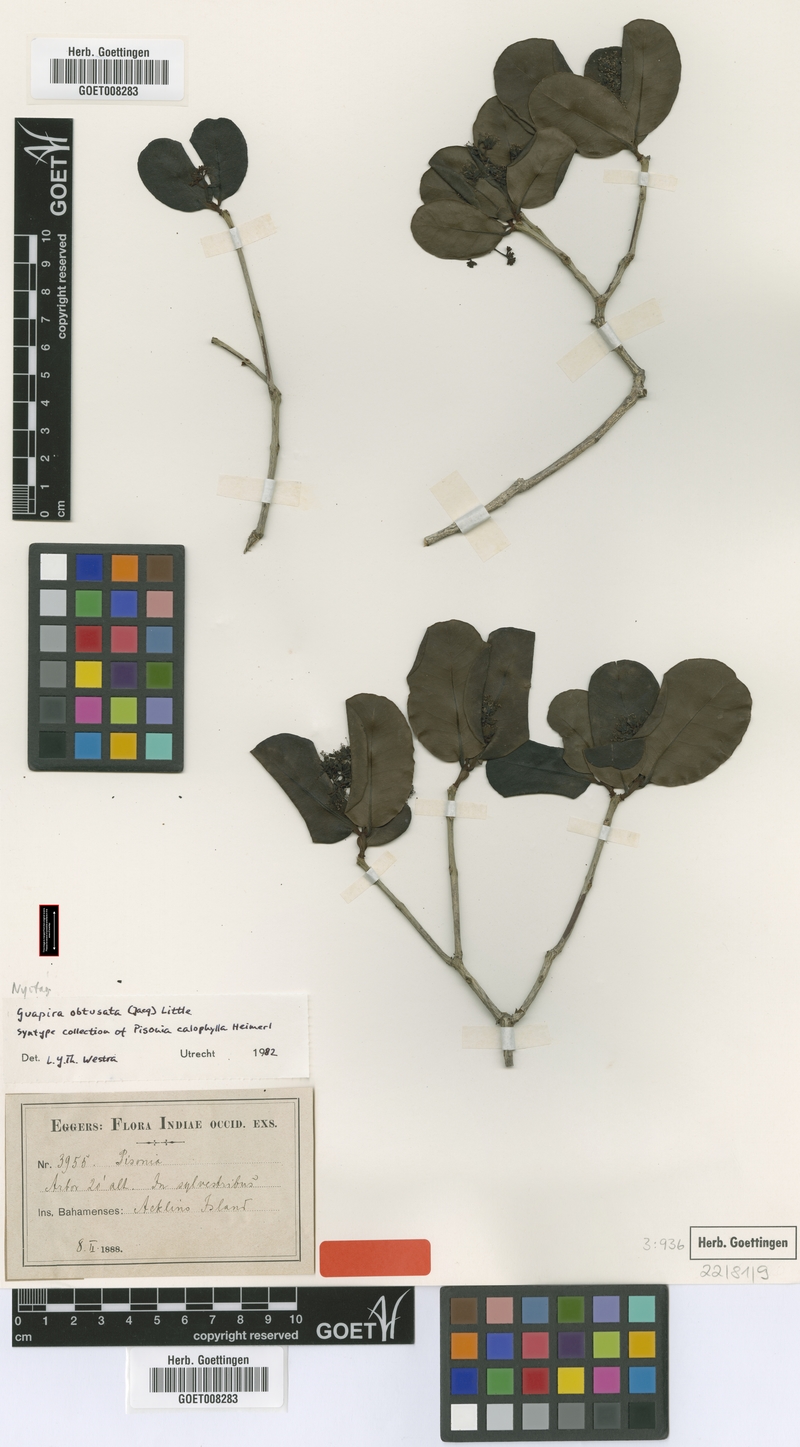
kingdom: Plantae
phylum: Tracheophyta
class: Magnoliopsida
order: Caryophyllales
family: Nyctaginaceae
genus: Guapira
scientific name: Guapira obtusata
